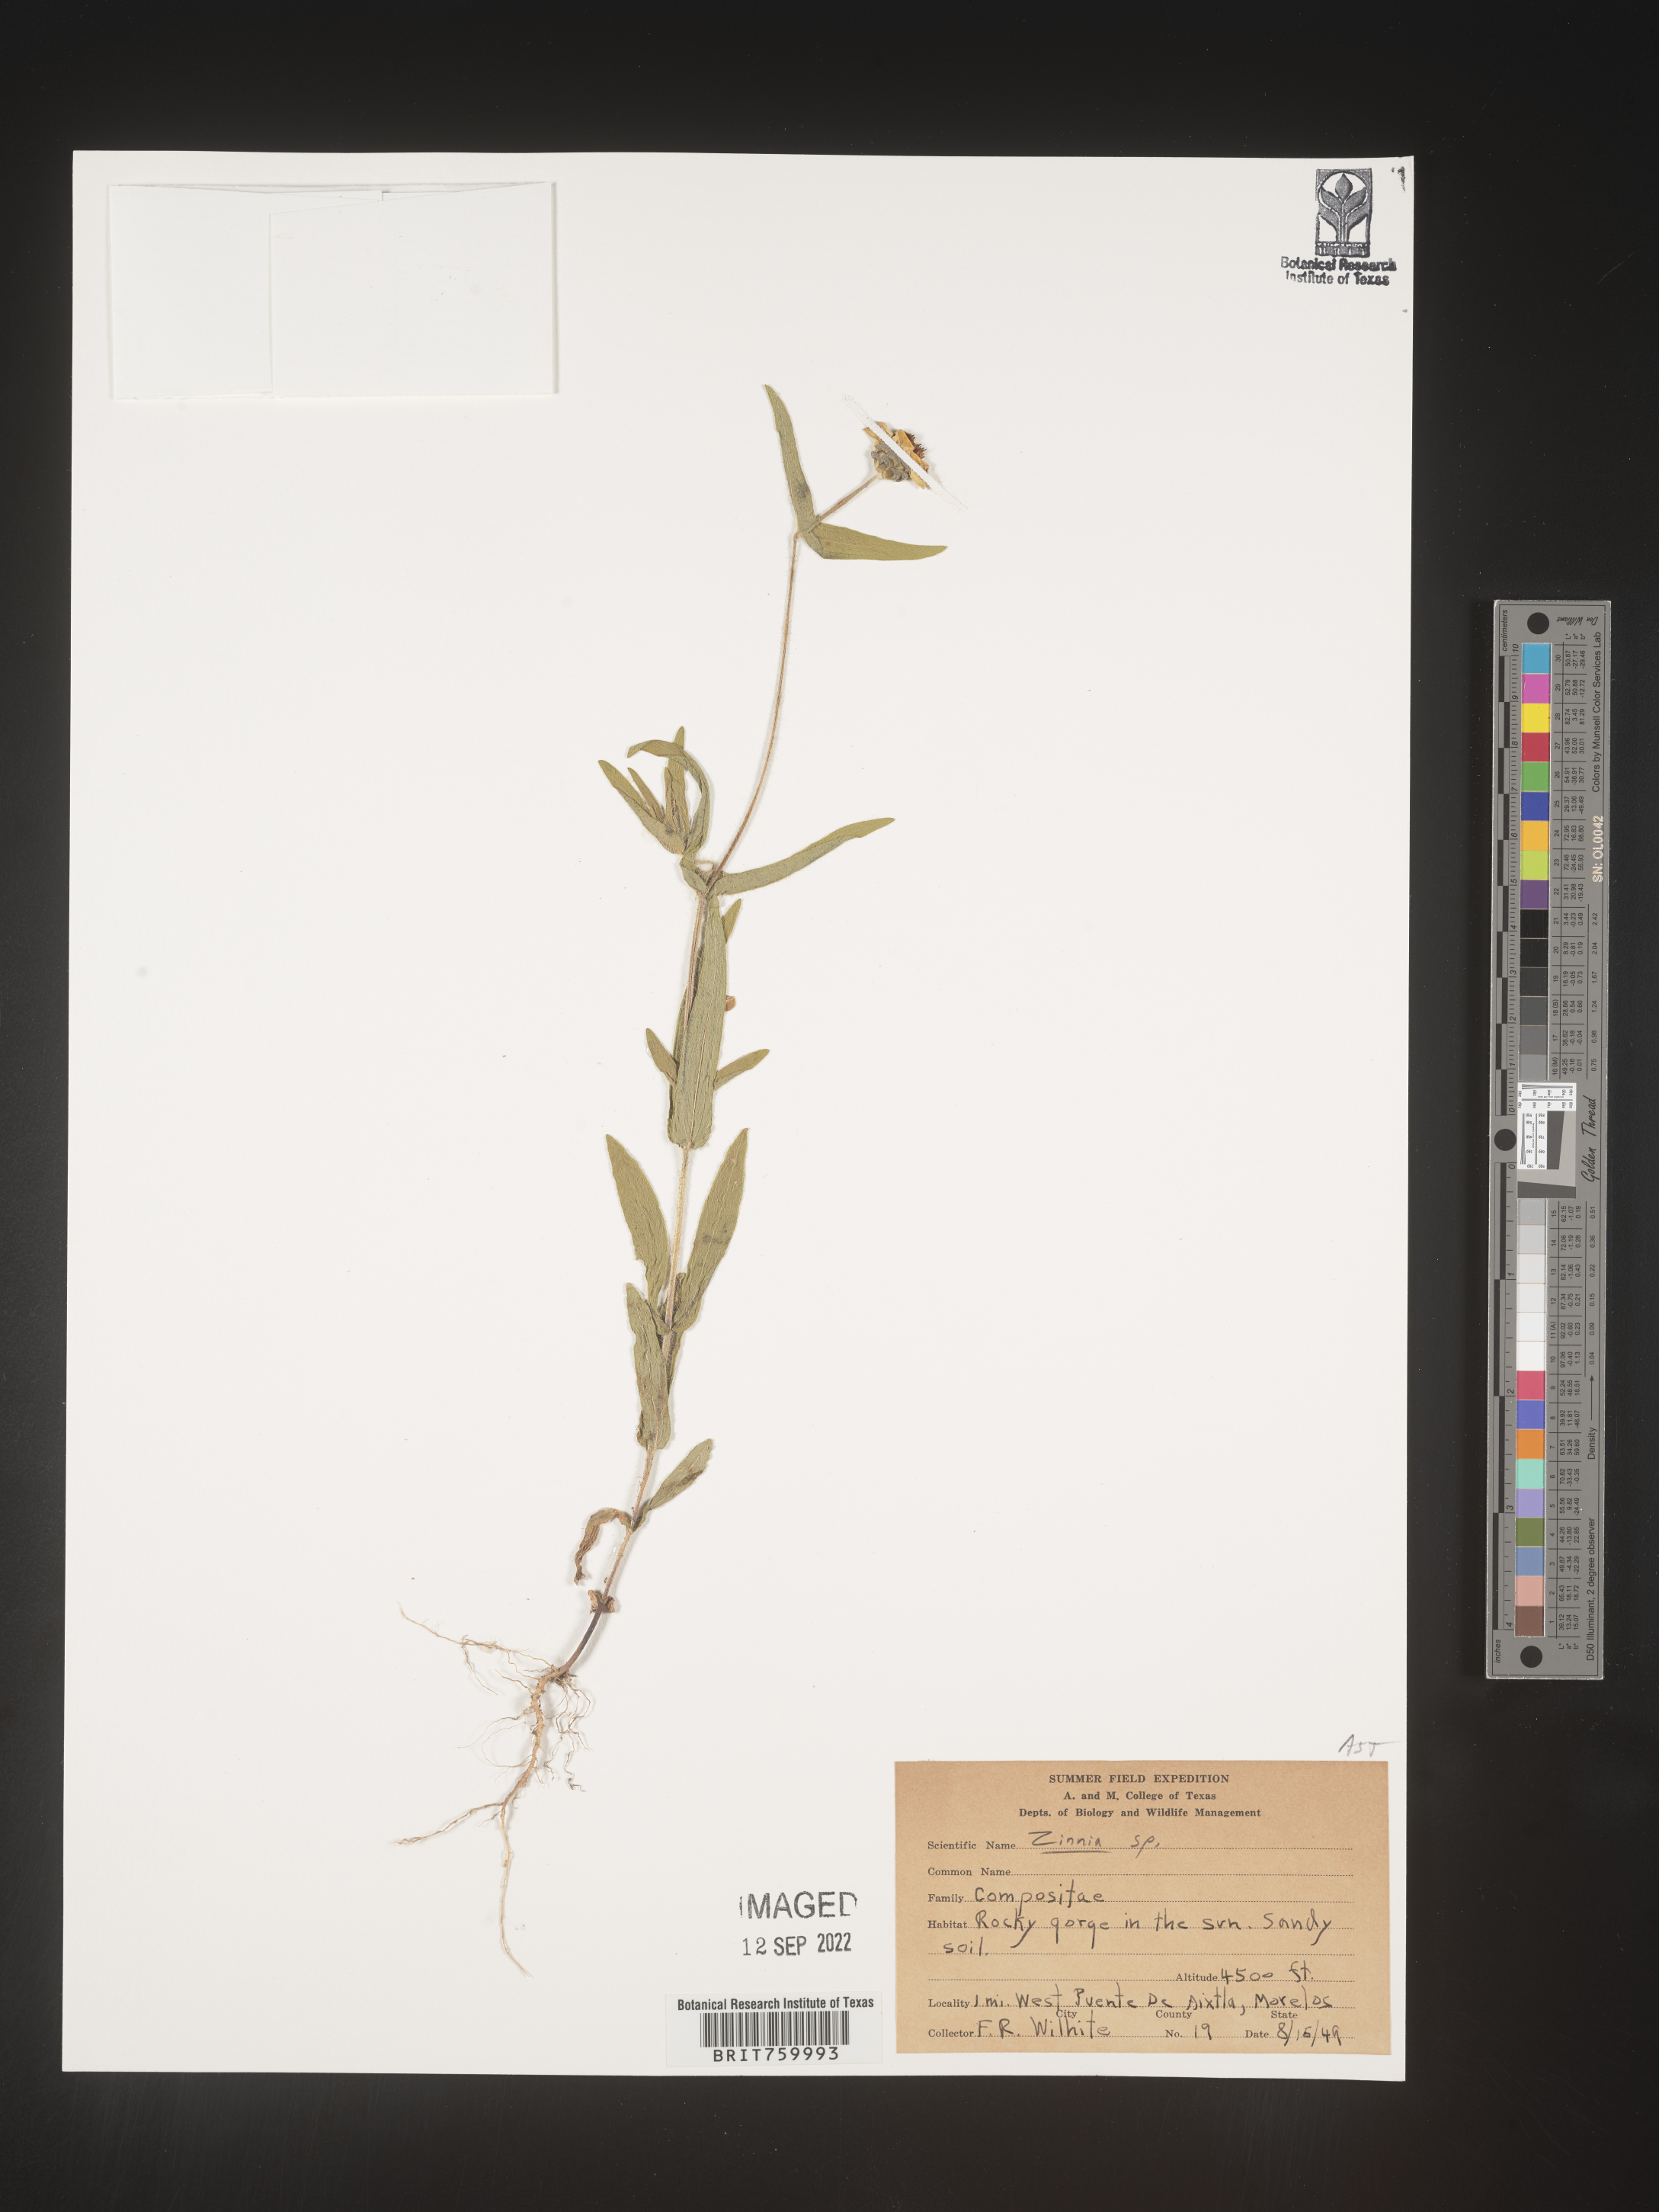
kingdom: Plantae
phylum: Tracheophyta
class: Magnoliopsida
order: Asterales
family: Asteraceae
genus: Zinnia
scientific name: Zinnia
